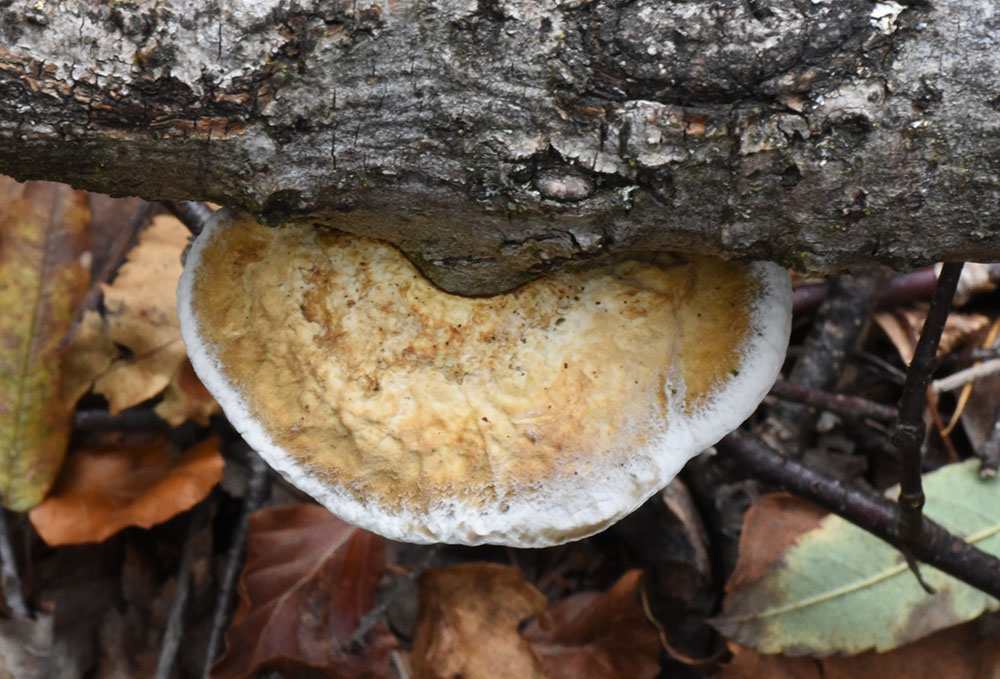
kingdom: Fungi
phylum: Basidiomycota
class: Agaricomycetes
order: Polyporales
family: Polyporaceae
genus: Daedaleopsis
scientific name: Daedaleopsis confragosa
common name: Blushing bracket
